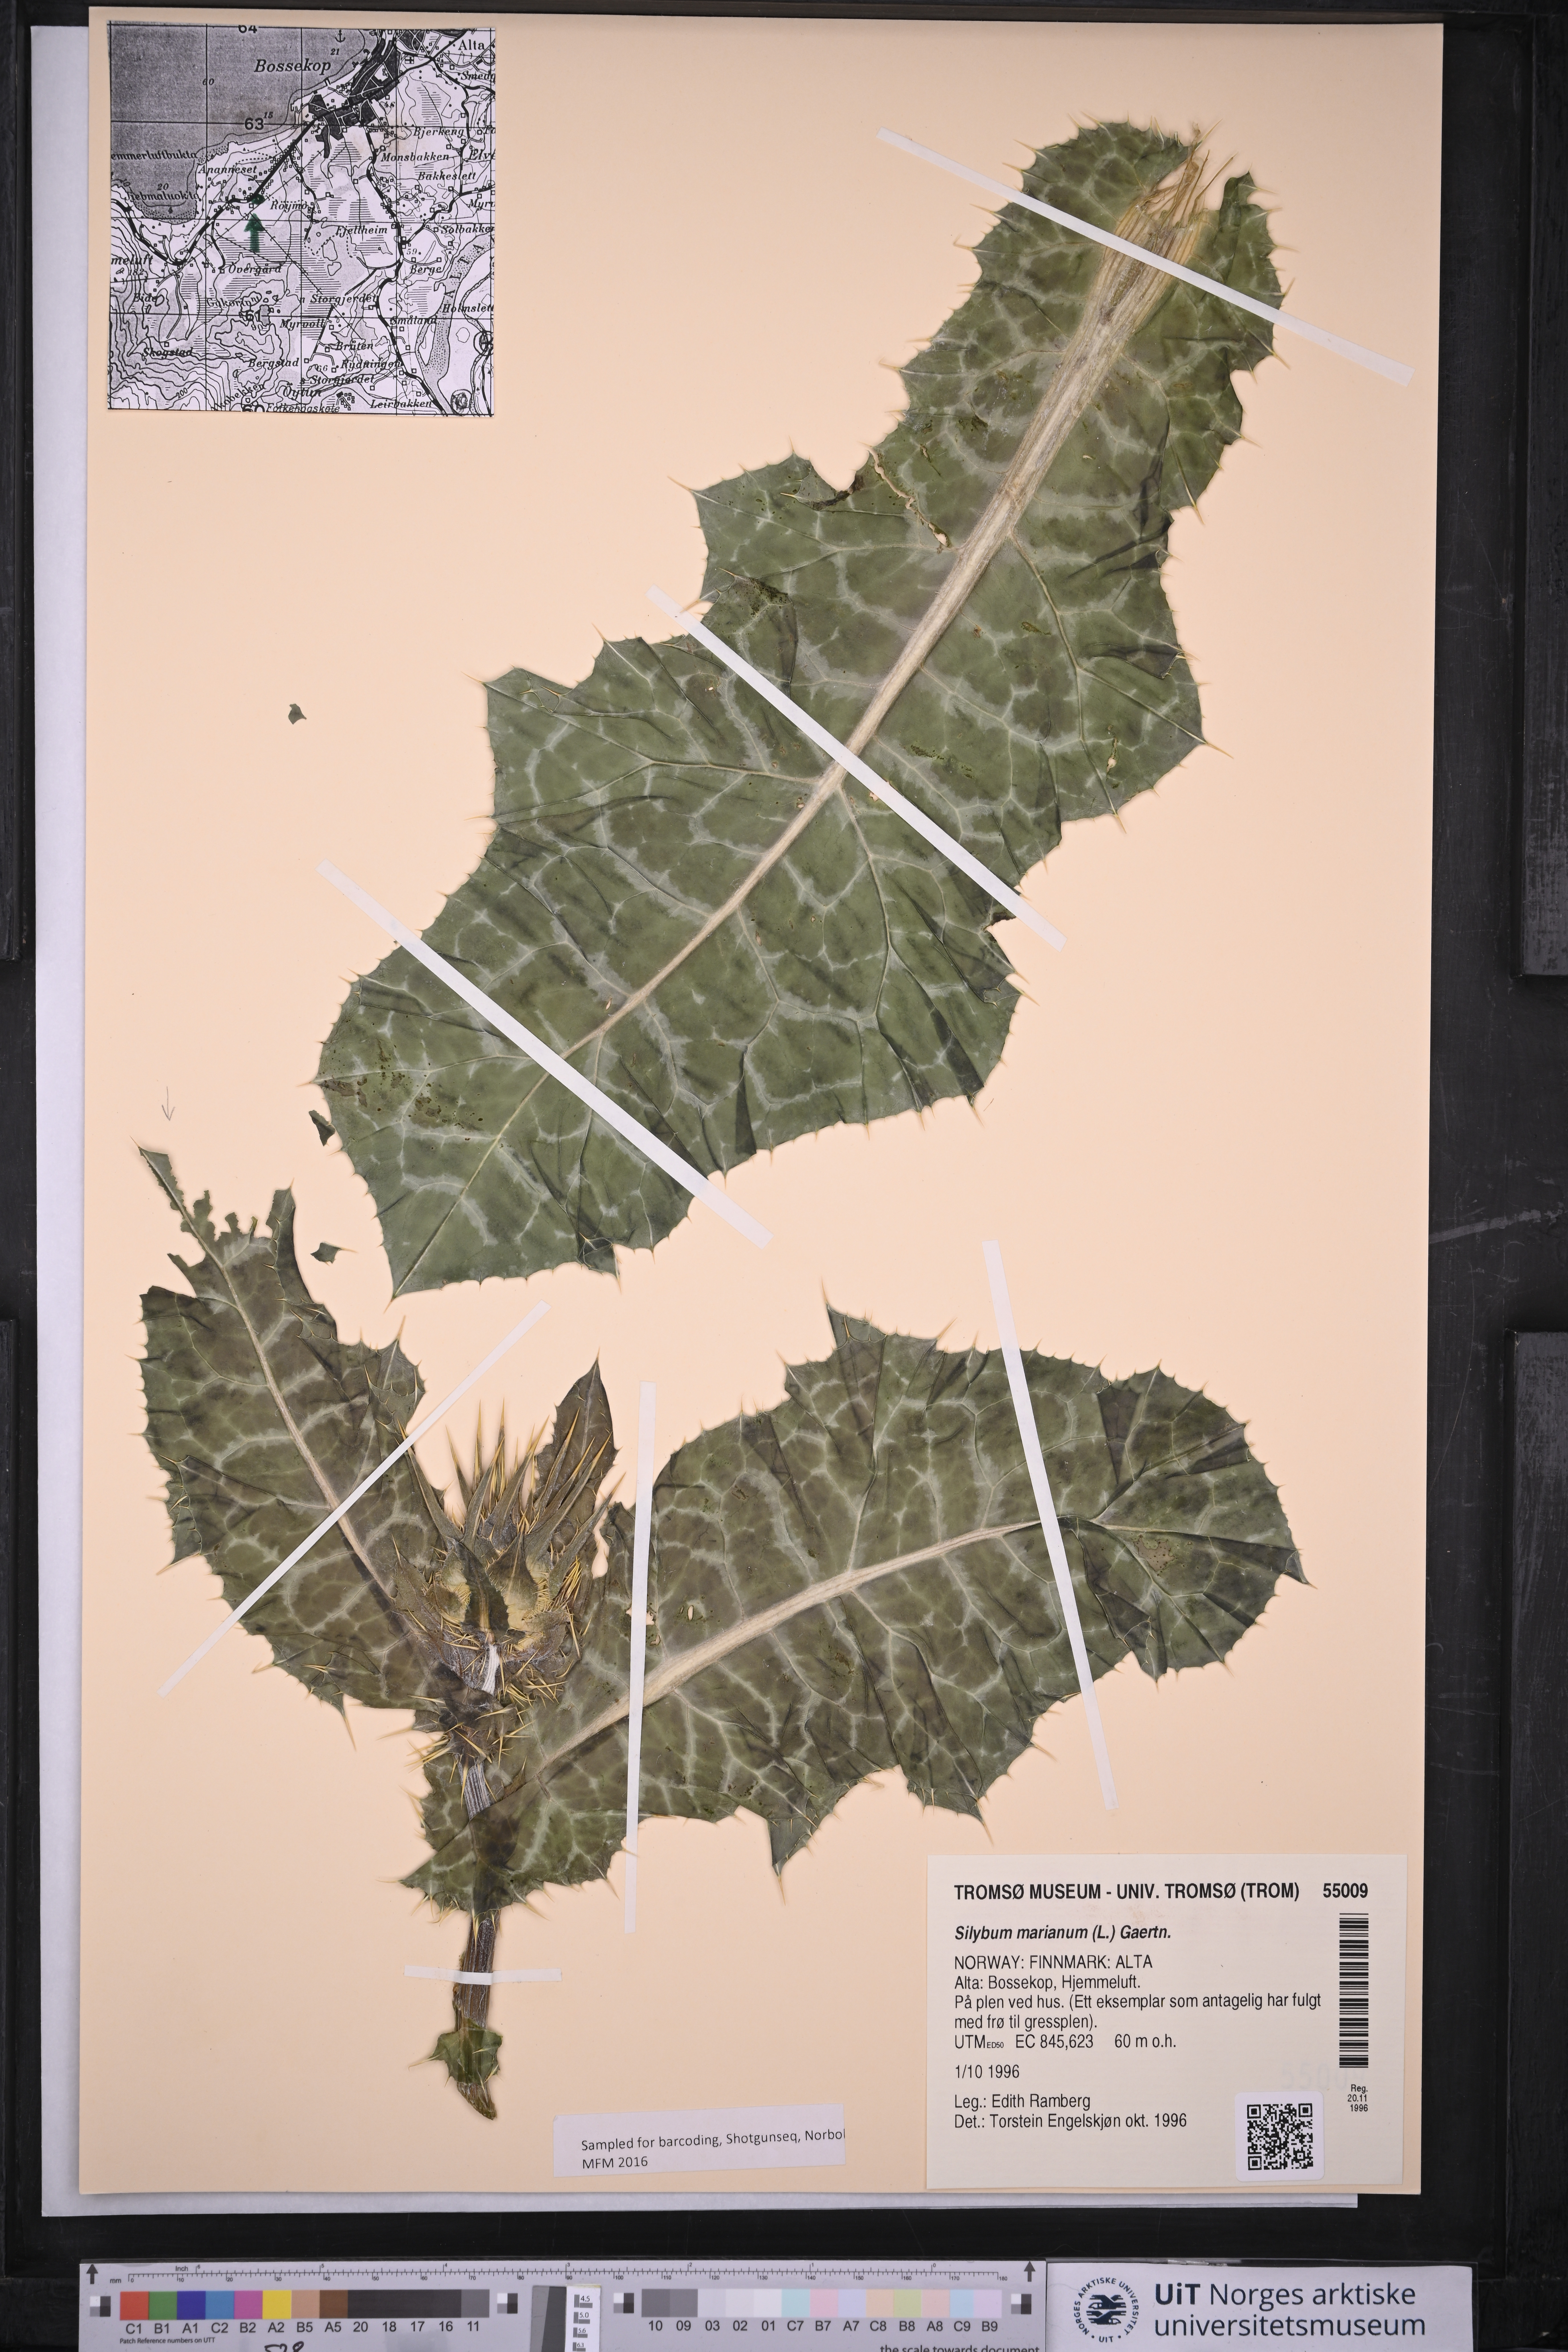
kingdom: Plantae
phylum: Tracheophyta
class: Magnoliopsida
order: Asterales
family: Asteraceae
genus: Silybum
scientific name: Silybum marianum
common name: Milk thistle
